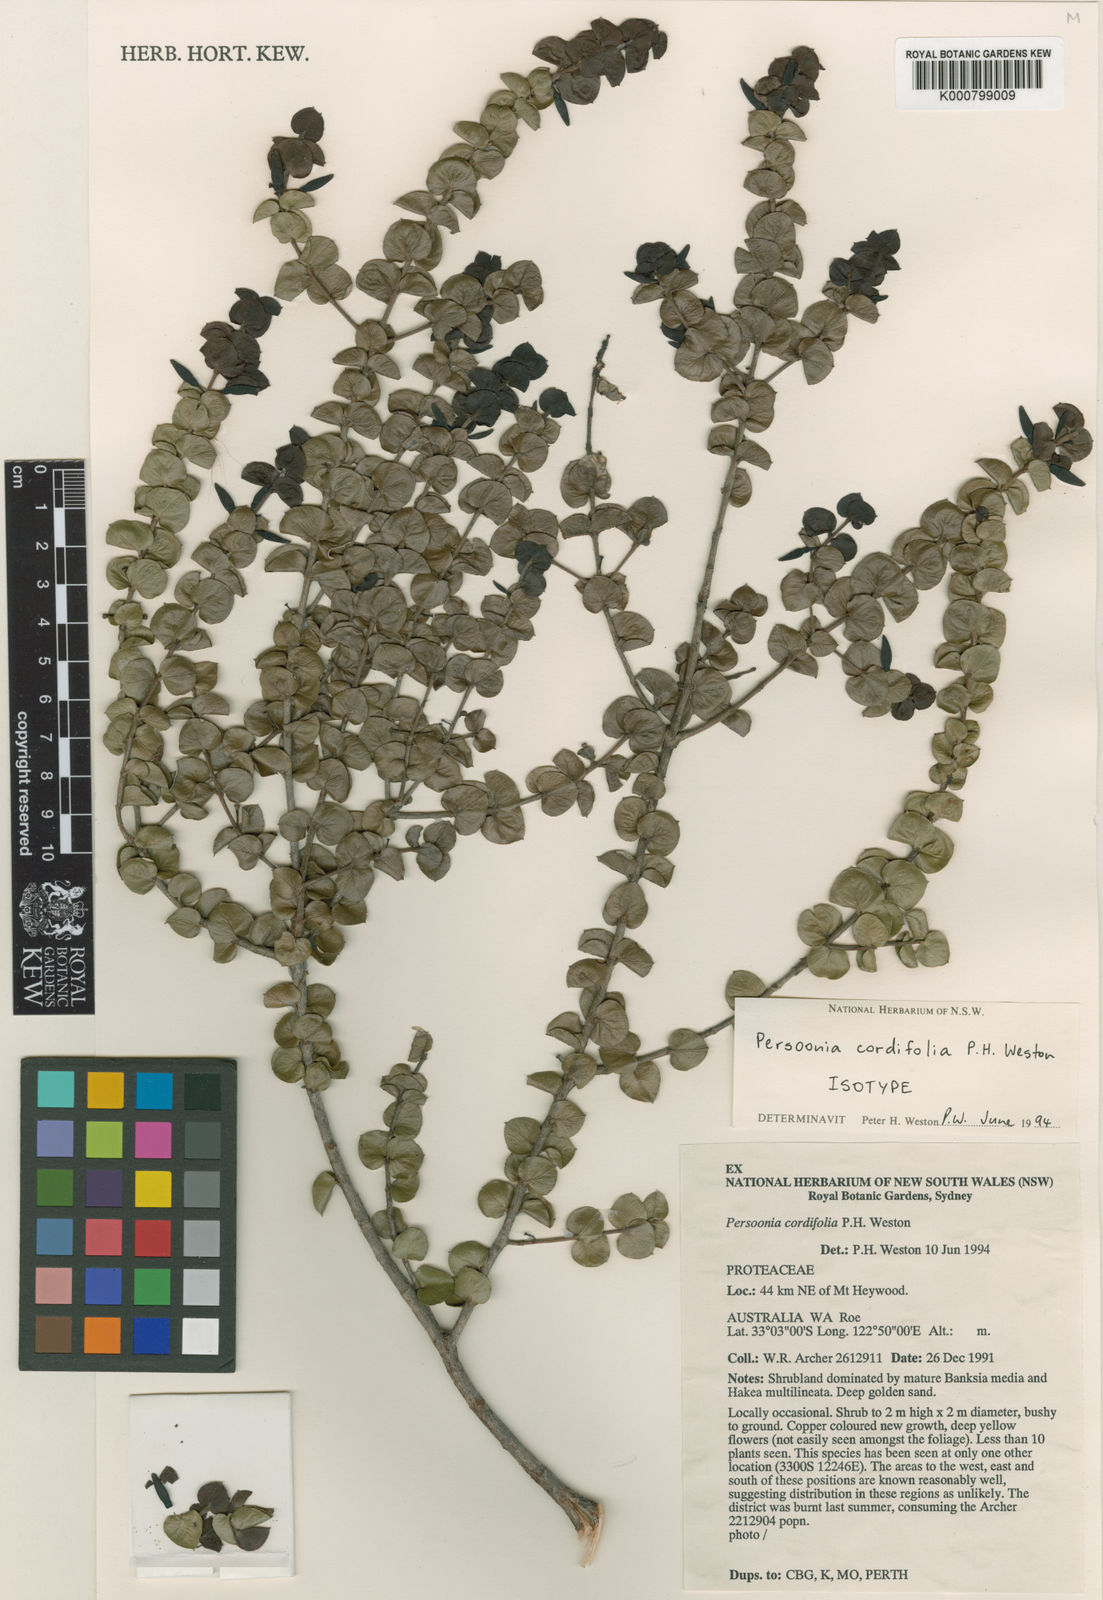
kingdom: Plantae
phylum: Tracheophyta
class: Magnoliopsida
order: Proteales
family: Proteaceae
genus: Persoonia
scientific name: Persoonia cordifolia
